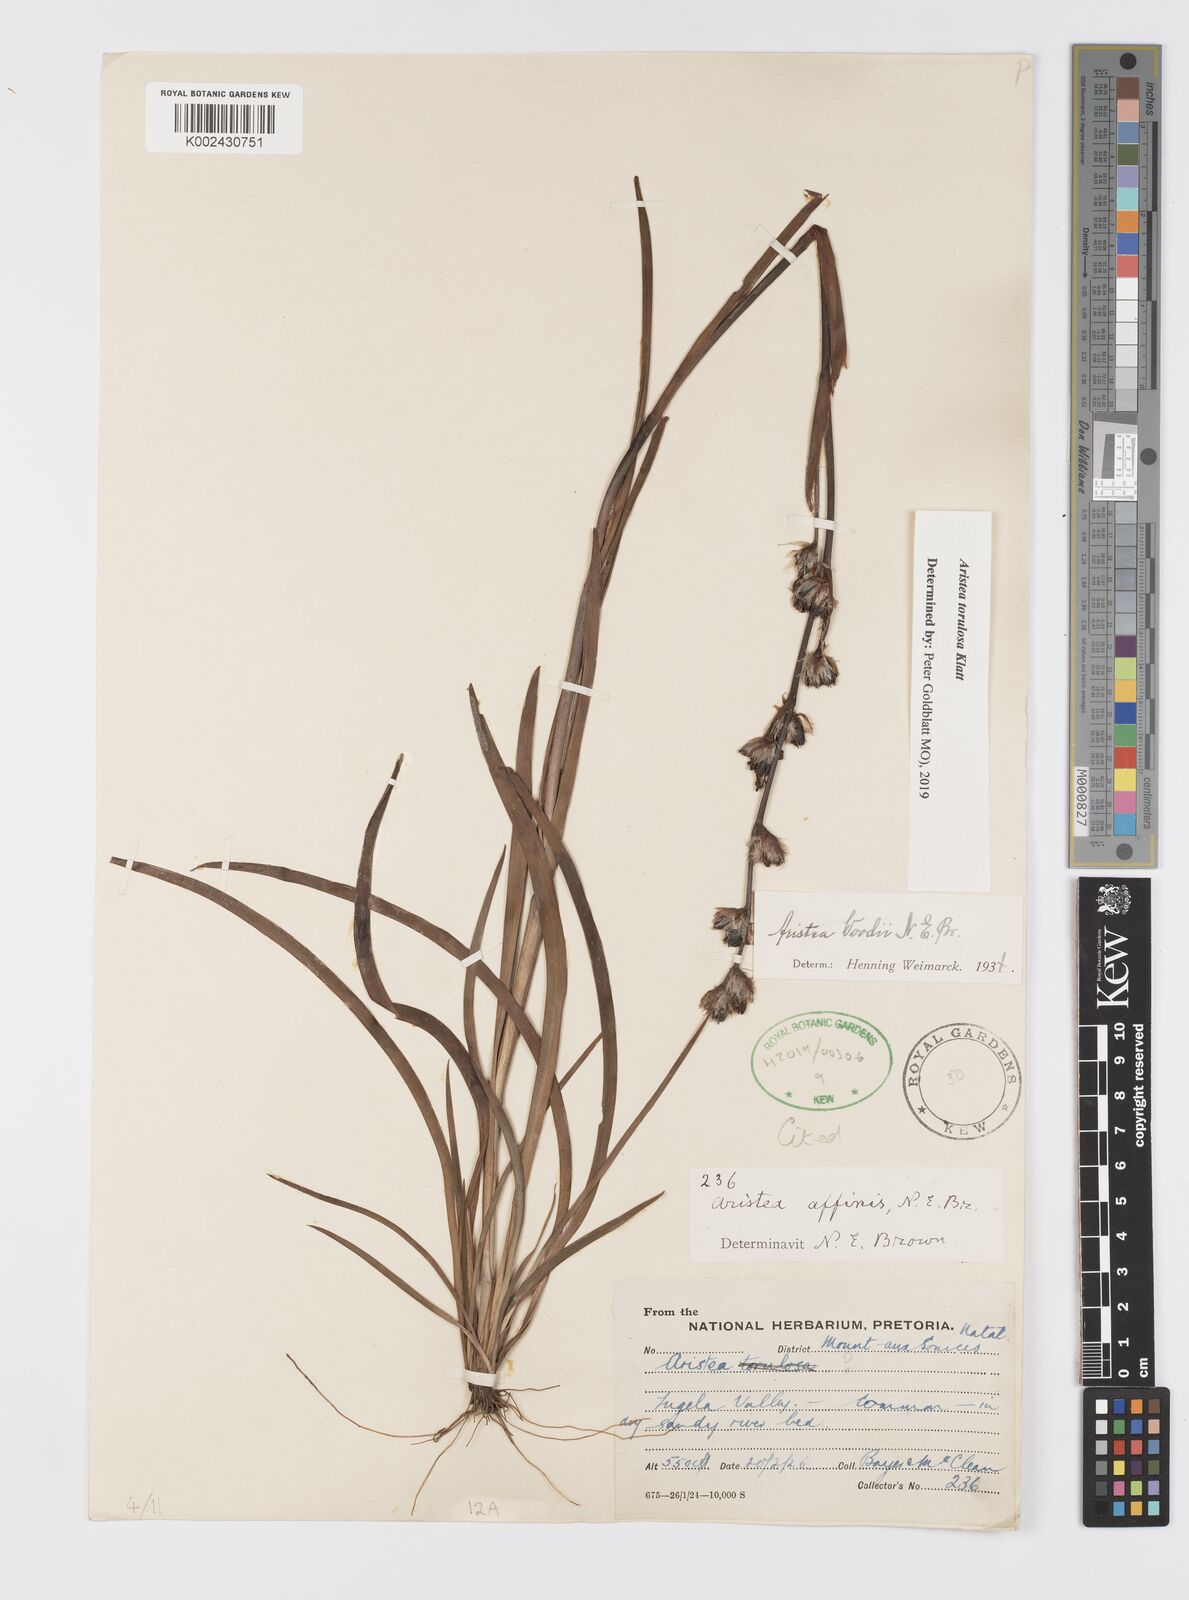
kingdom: Plantae
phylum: Tracheophyta
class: Liliopsida
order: Asparagales
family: Iridaceae
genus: Aristea
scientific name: Aristea torulosa
